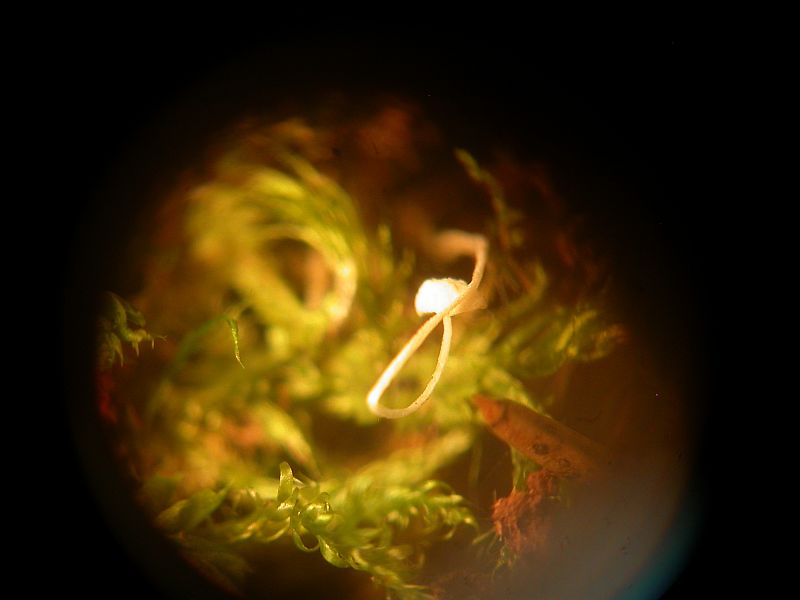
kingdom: Fungi
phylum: Basidiomycota
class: Agaricomycetes
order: Agaricales
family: Mycenaceae
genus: Mycena
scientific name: Mycena
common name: huesvamp
